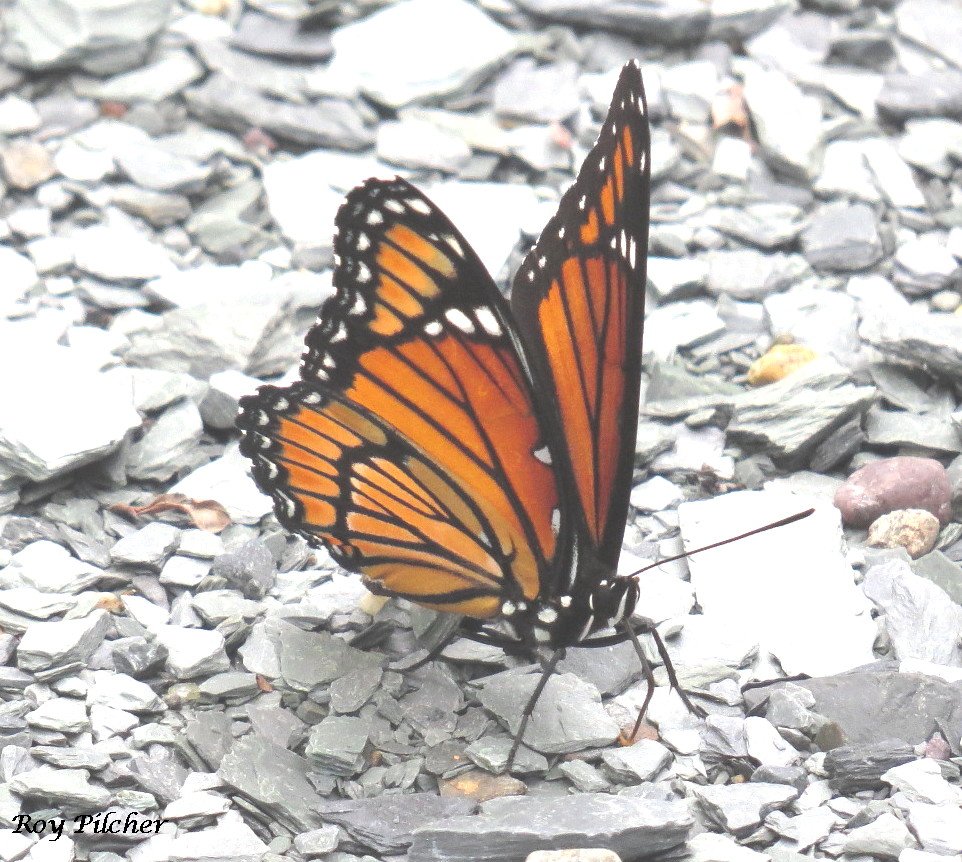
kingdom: Animalia
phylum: Arthropoda
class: Insecta
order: Lepidoptera
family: Nymphalidae
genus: Limenitis
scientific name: Limenitis archippus
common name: Viceroy
